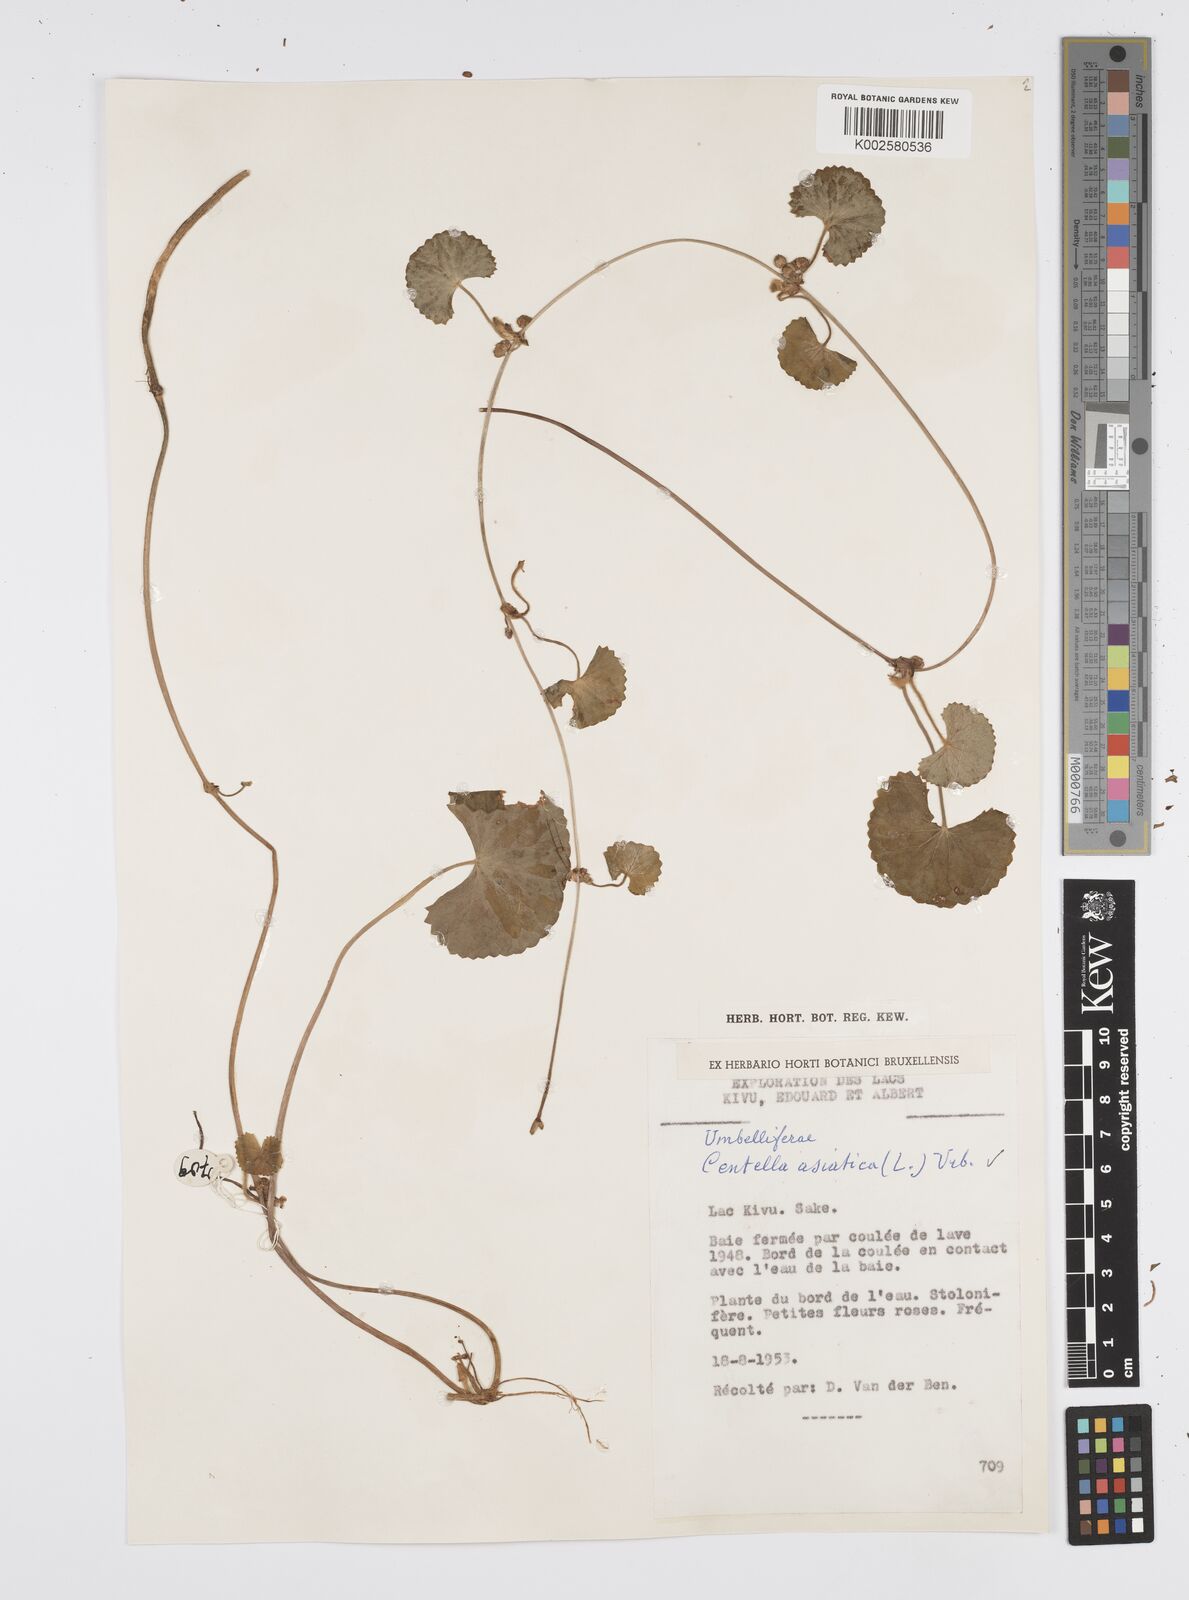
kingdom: Plantae
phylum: Tracheophyta
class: Magnoliopsida
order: Apiales
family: Apiaceae
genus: Centella
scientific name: Centella asiatica
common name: Spadeleaf
